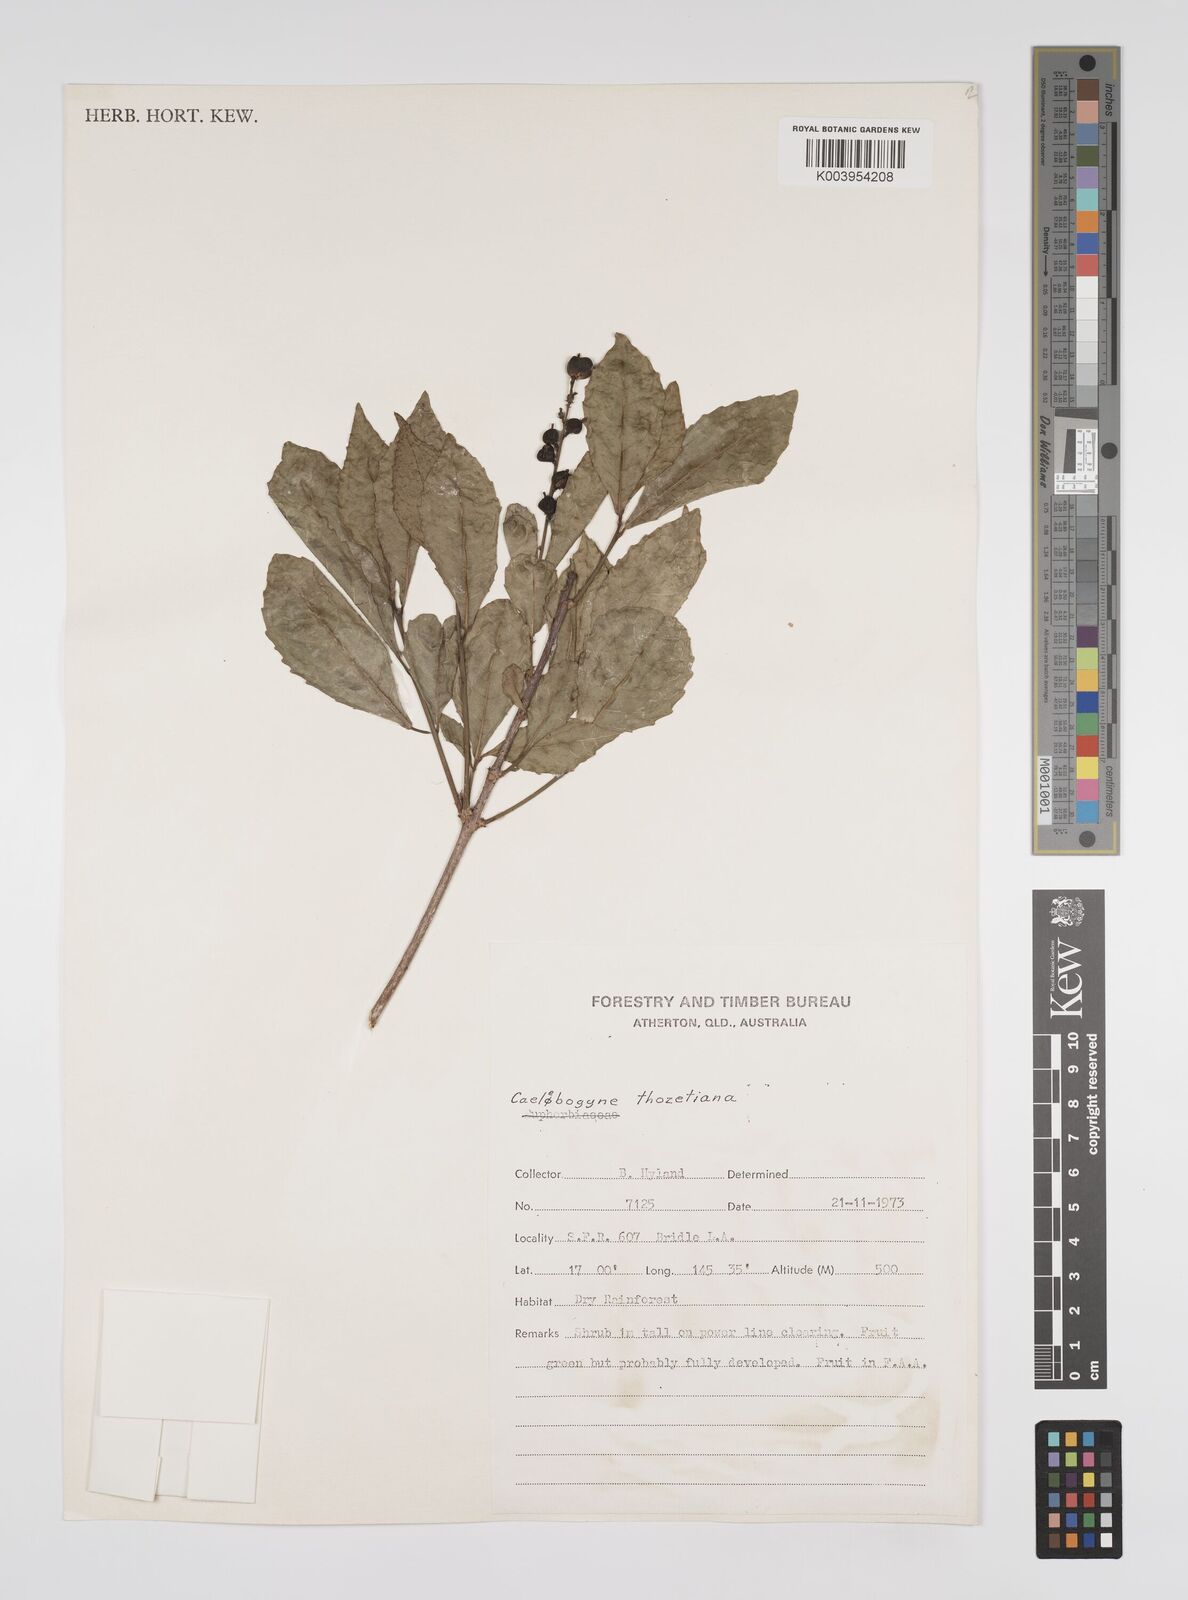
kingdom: Plantae
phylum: Tracheophyta
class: Magnoliopsida
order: Malpighiales
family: Euphorbiaceae
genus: Alchornea
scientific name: Alchornea ilicifolia
